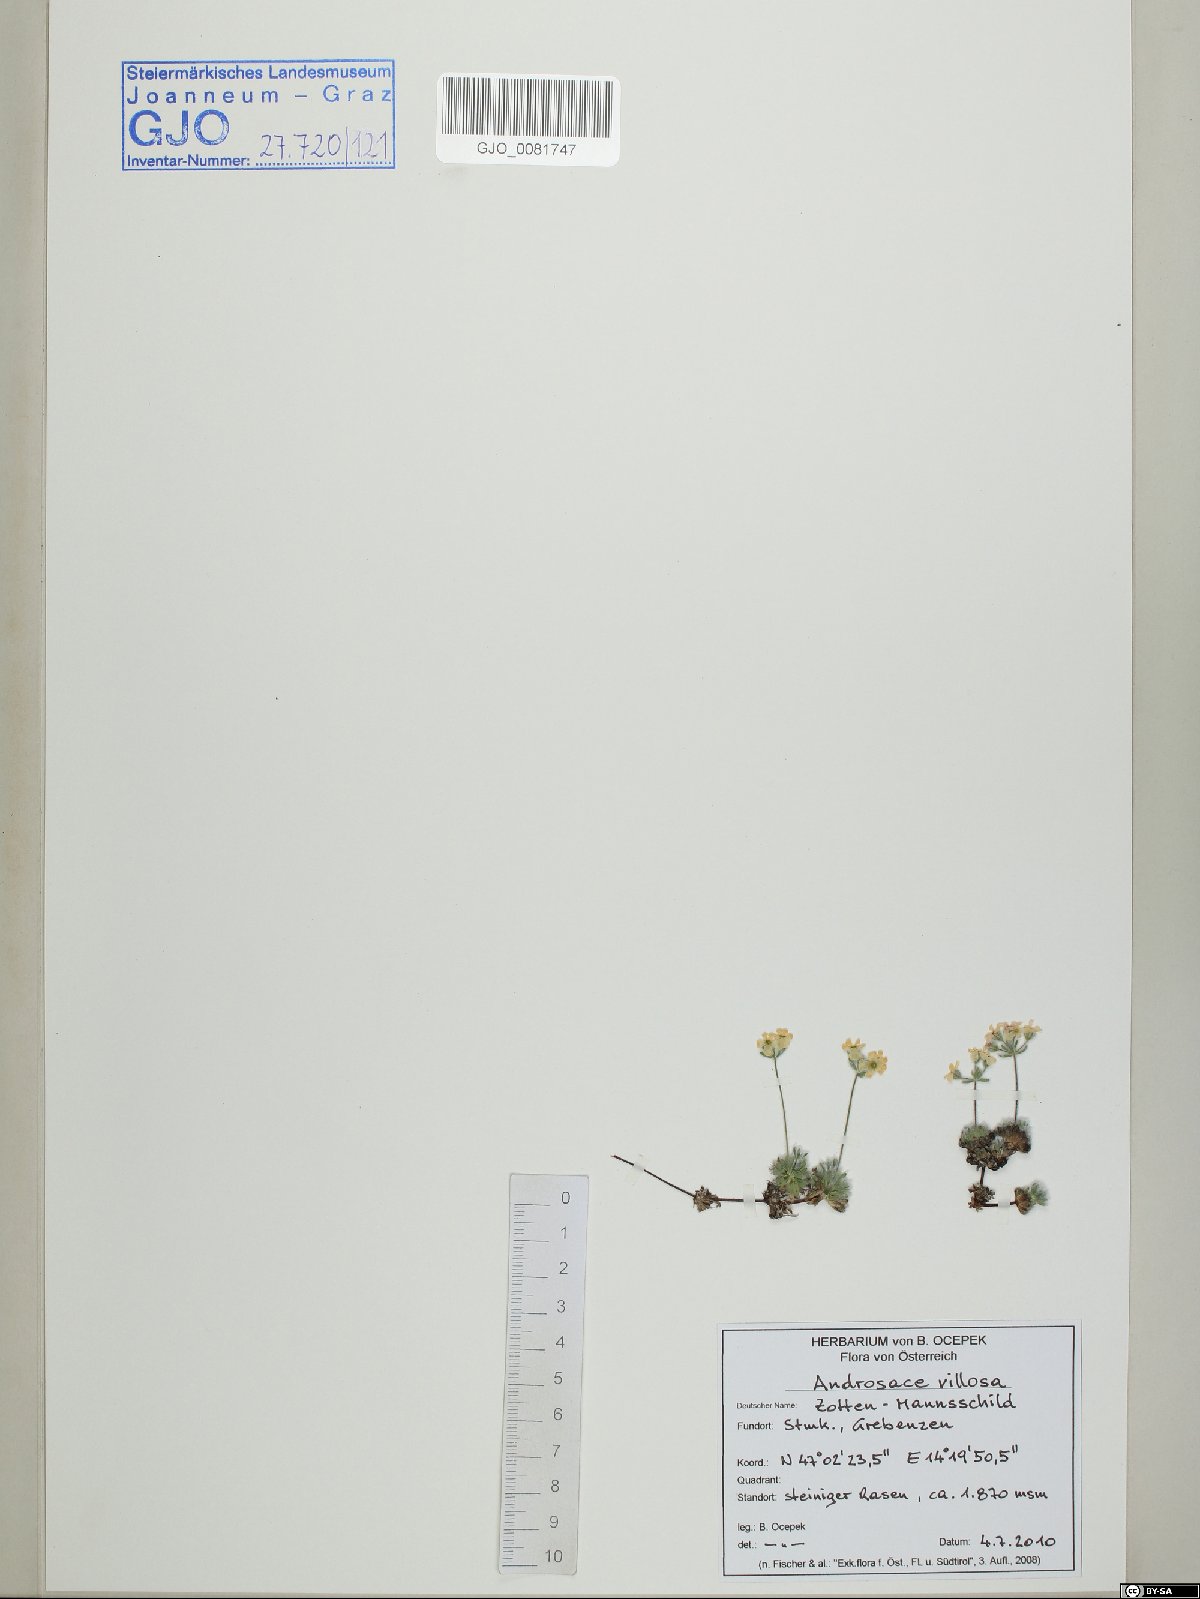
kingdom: Plantae
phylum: Tracheophyta
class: Magnoliopsida
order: Ericales
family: Primulaceae
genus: Androsace
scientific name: Androsace villosa
